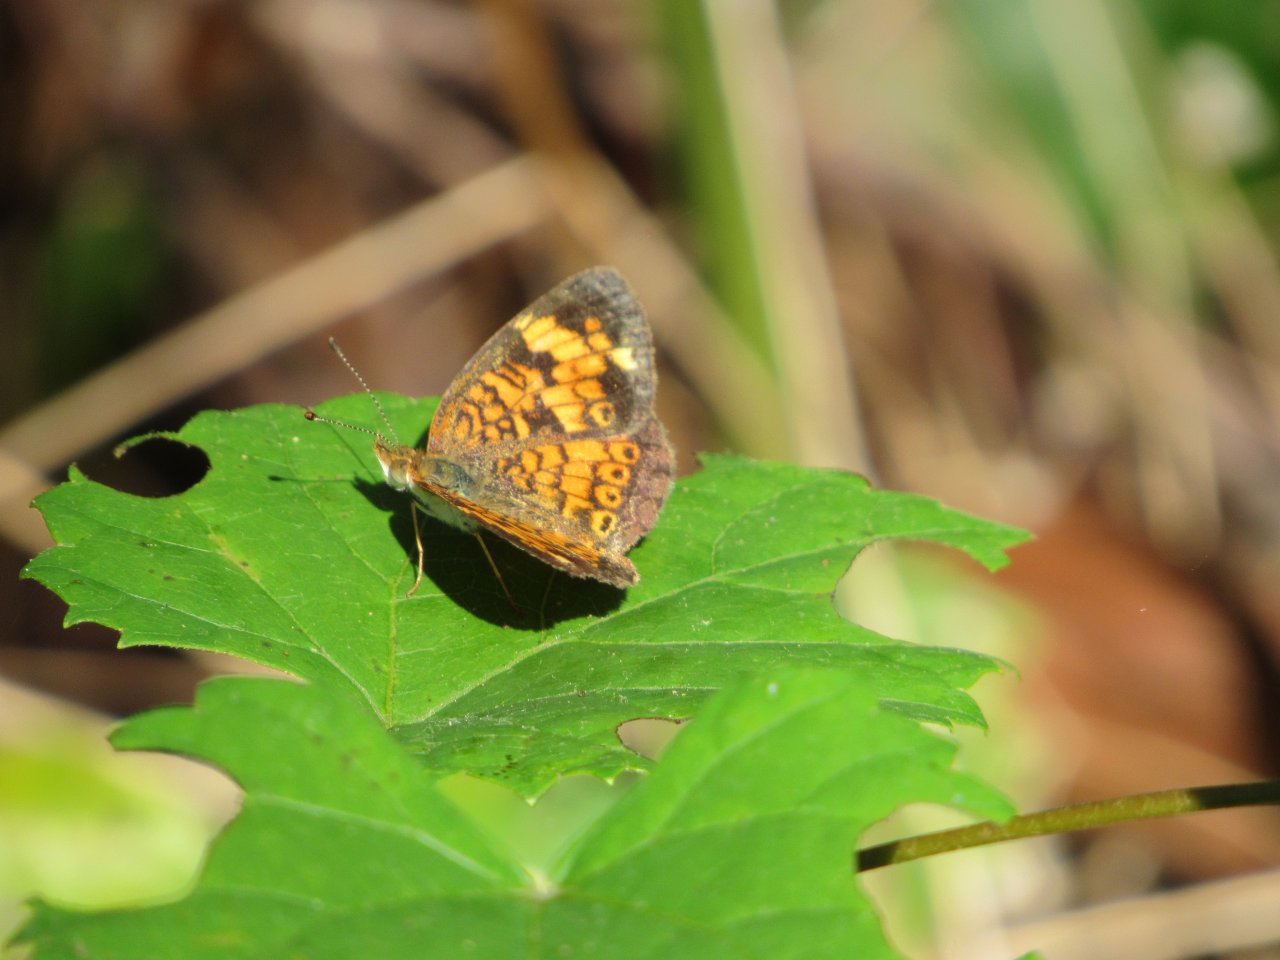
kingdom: Animalia
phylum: Arthropoda
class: Insecta
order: Lepidoptera
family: Nymphalidae
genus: Phyciodes
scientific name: Phyciodes tharos
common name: Pearl Crescent
